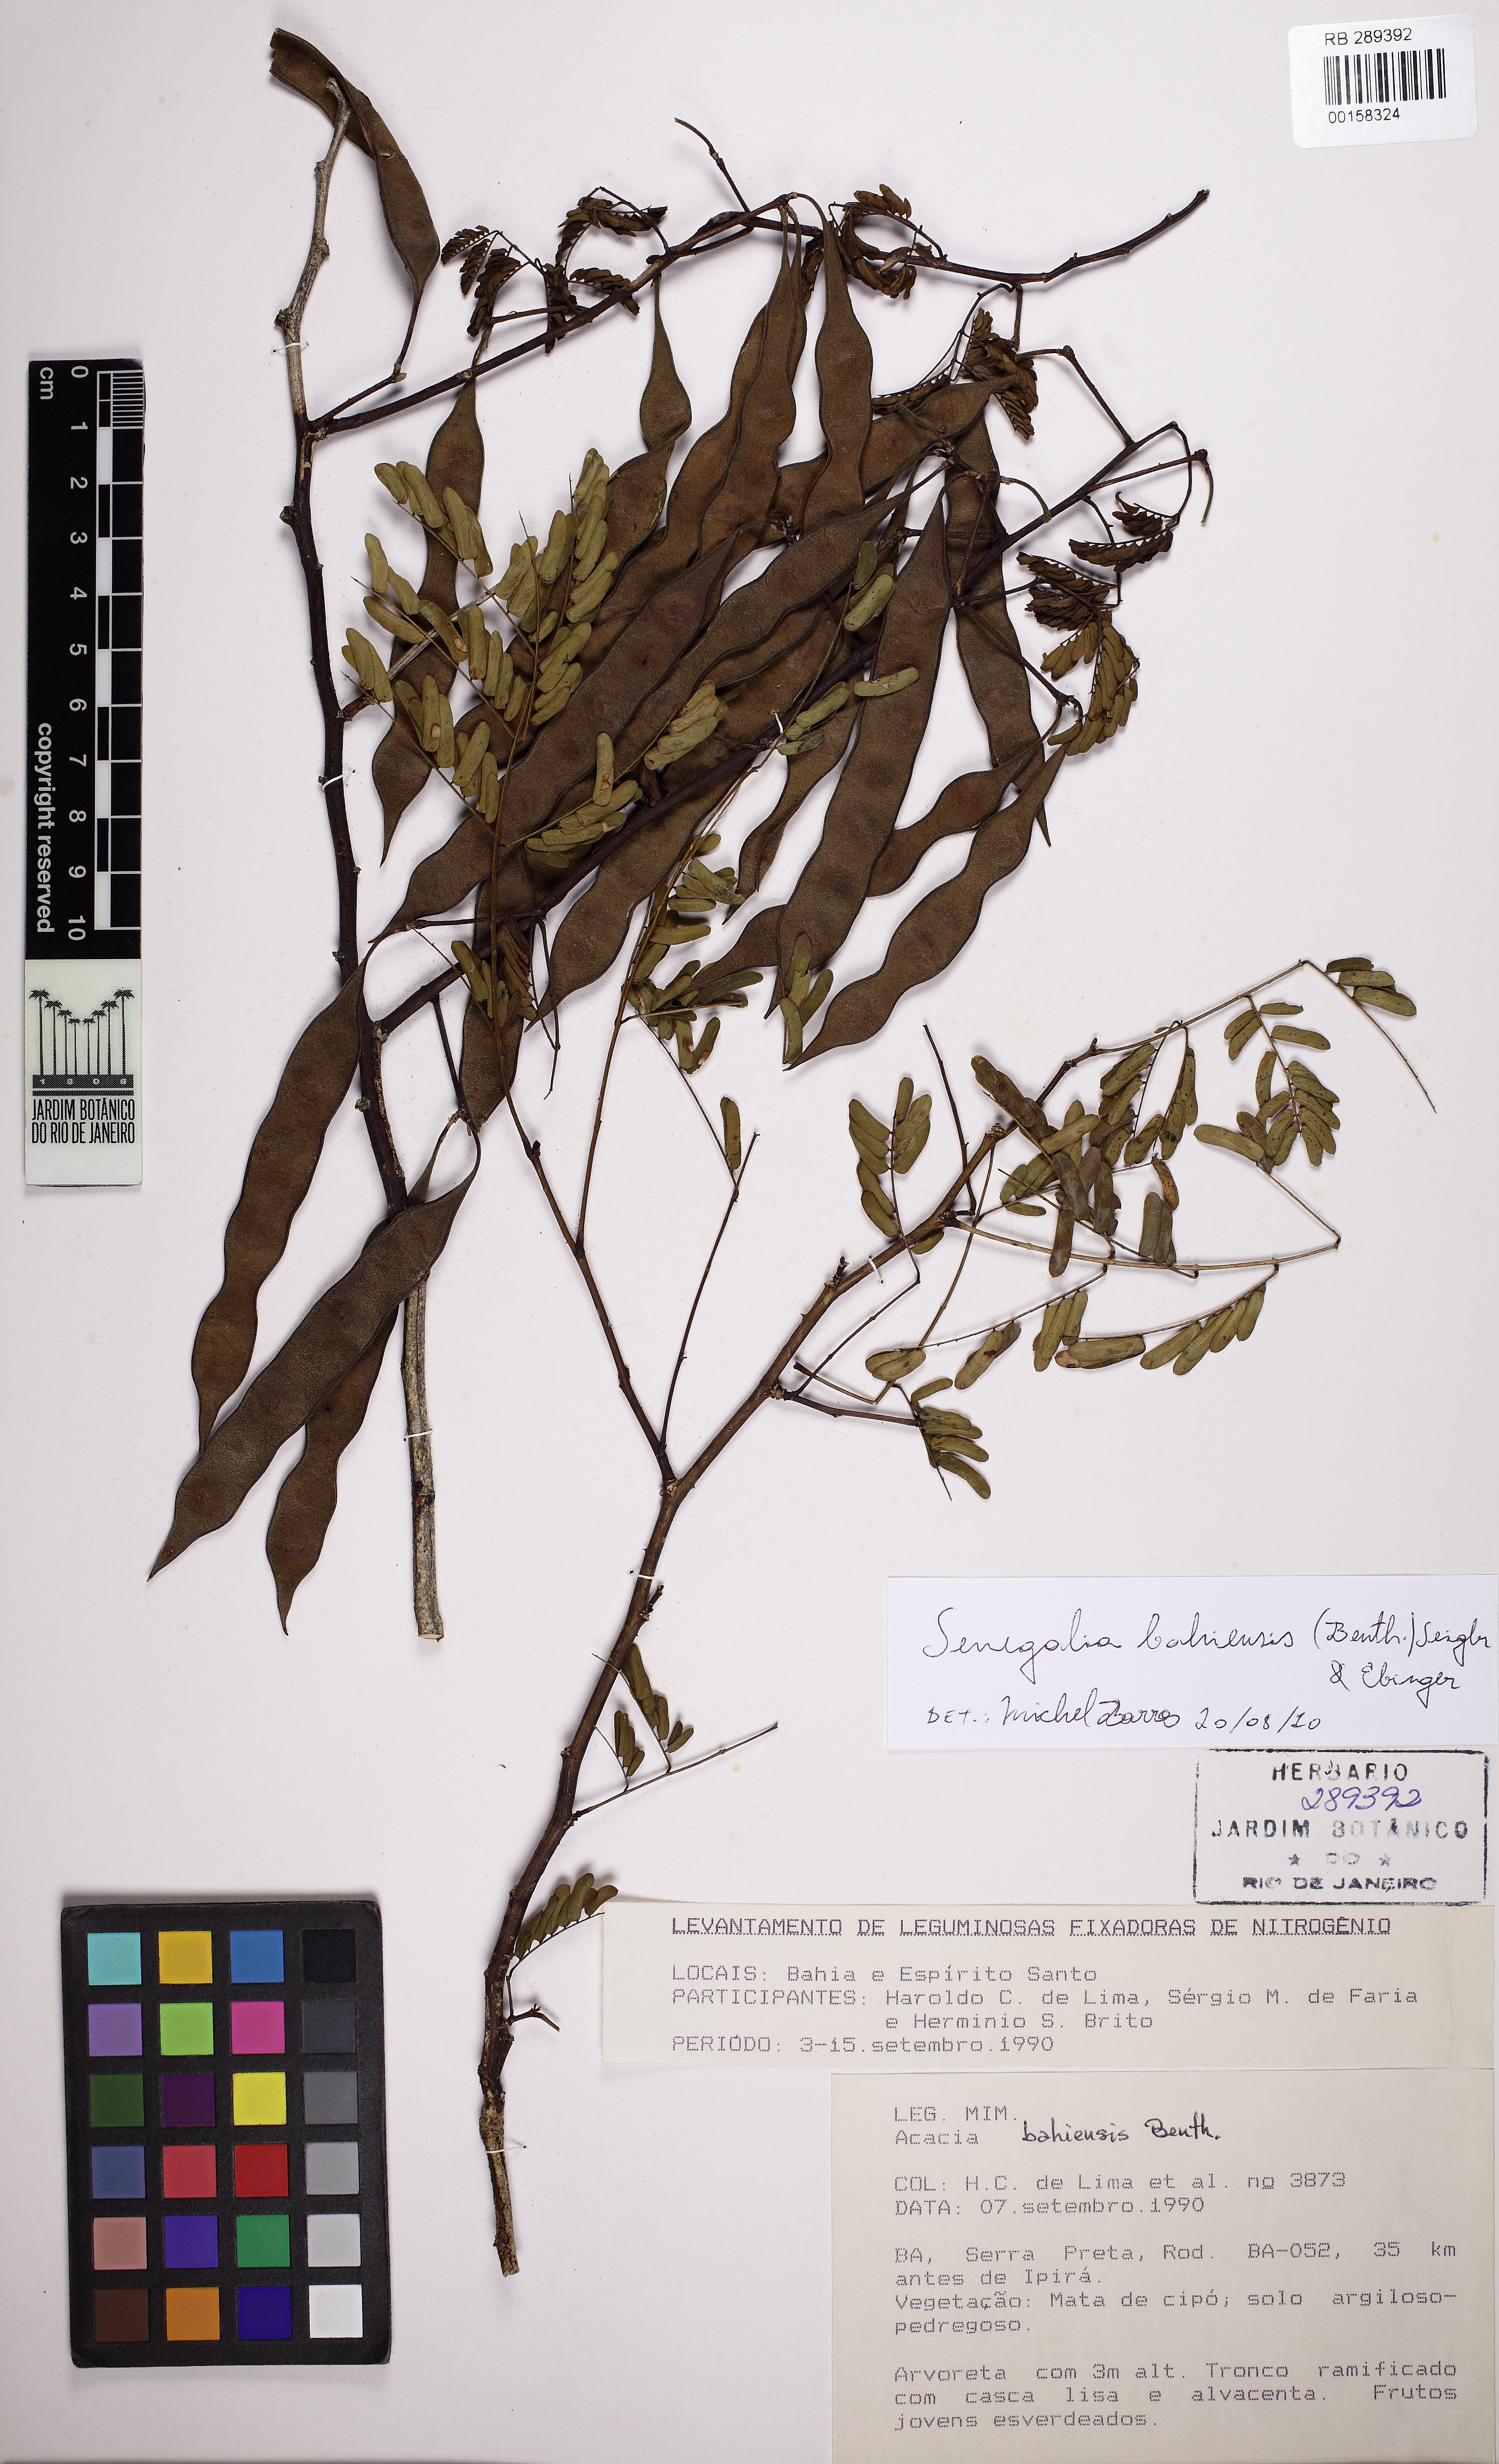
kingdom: Plantae
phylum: Tracheophyta
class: Magnoliopsida
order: Fabales
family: Fabaceae
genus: Senegalia
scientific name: Senegalia bahiensis
